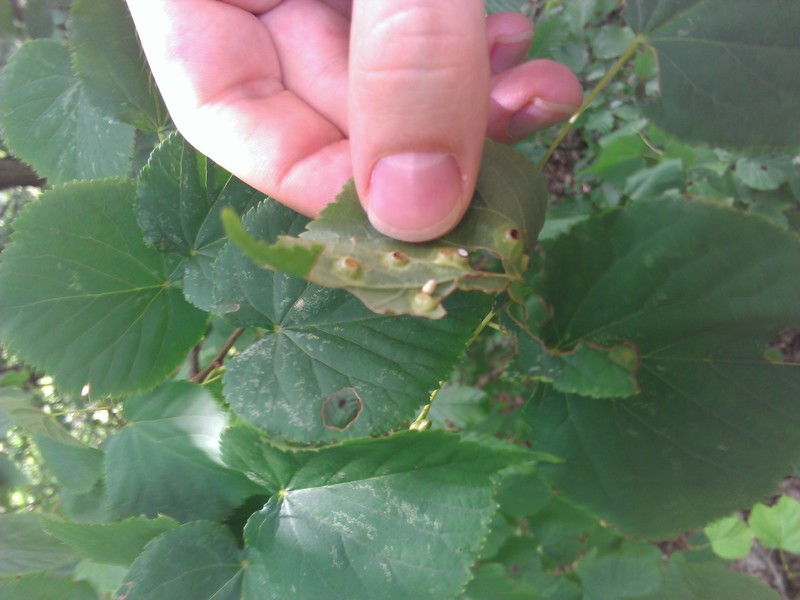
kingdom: Animalia
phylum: Arthropoda
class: Insecta
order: Diptera
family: Cecidomyiidae
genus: Didymomyia
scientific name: Didymomyia tiliacea
